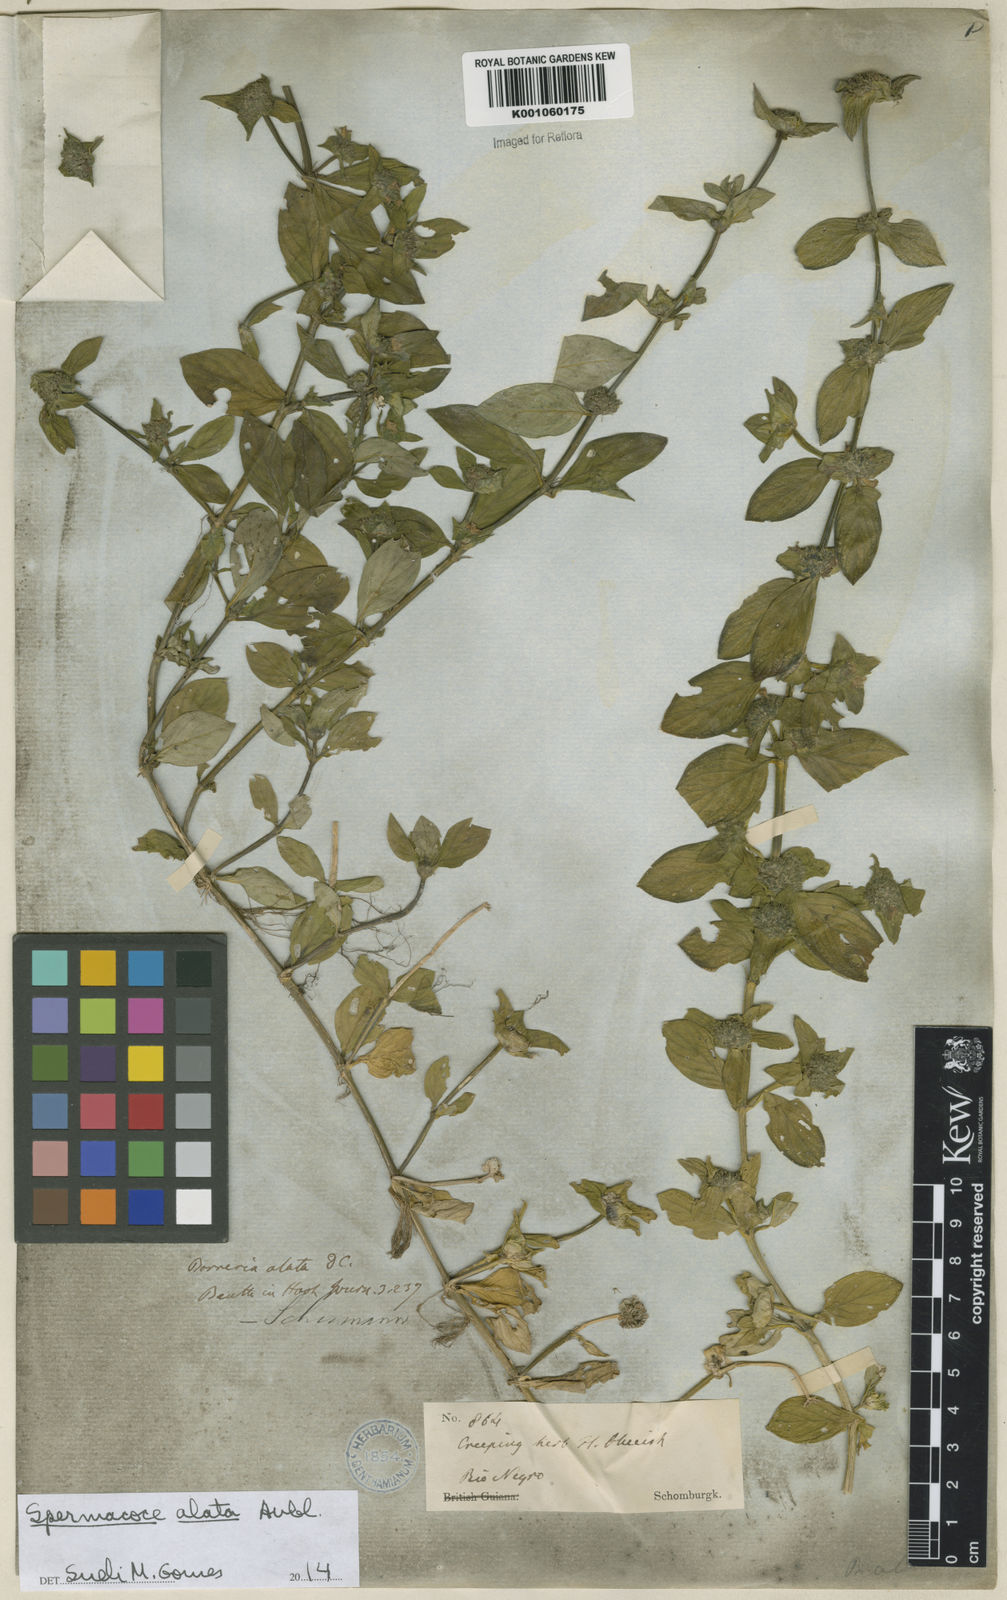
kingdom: Plantae
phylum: Tracheophyta
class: Magnoliopsida
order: Gentianales
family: Rubiaceae
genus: Spermacoce
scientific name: Spermacoce
